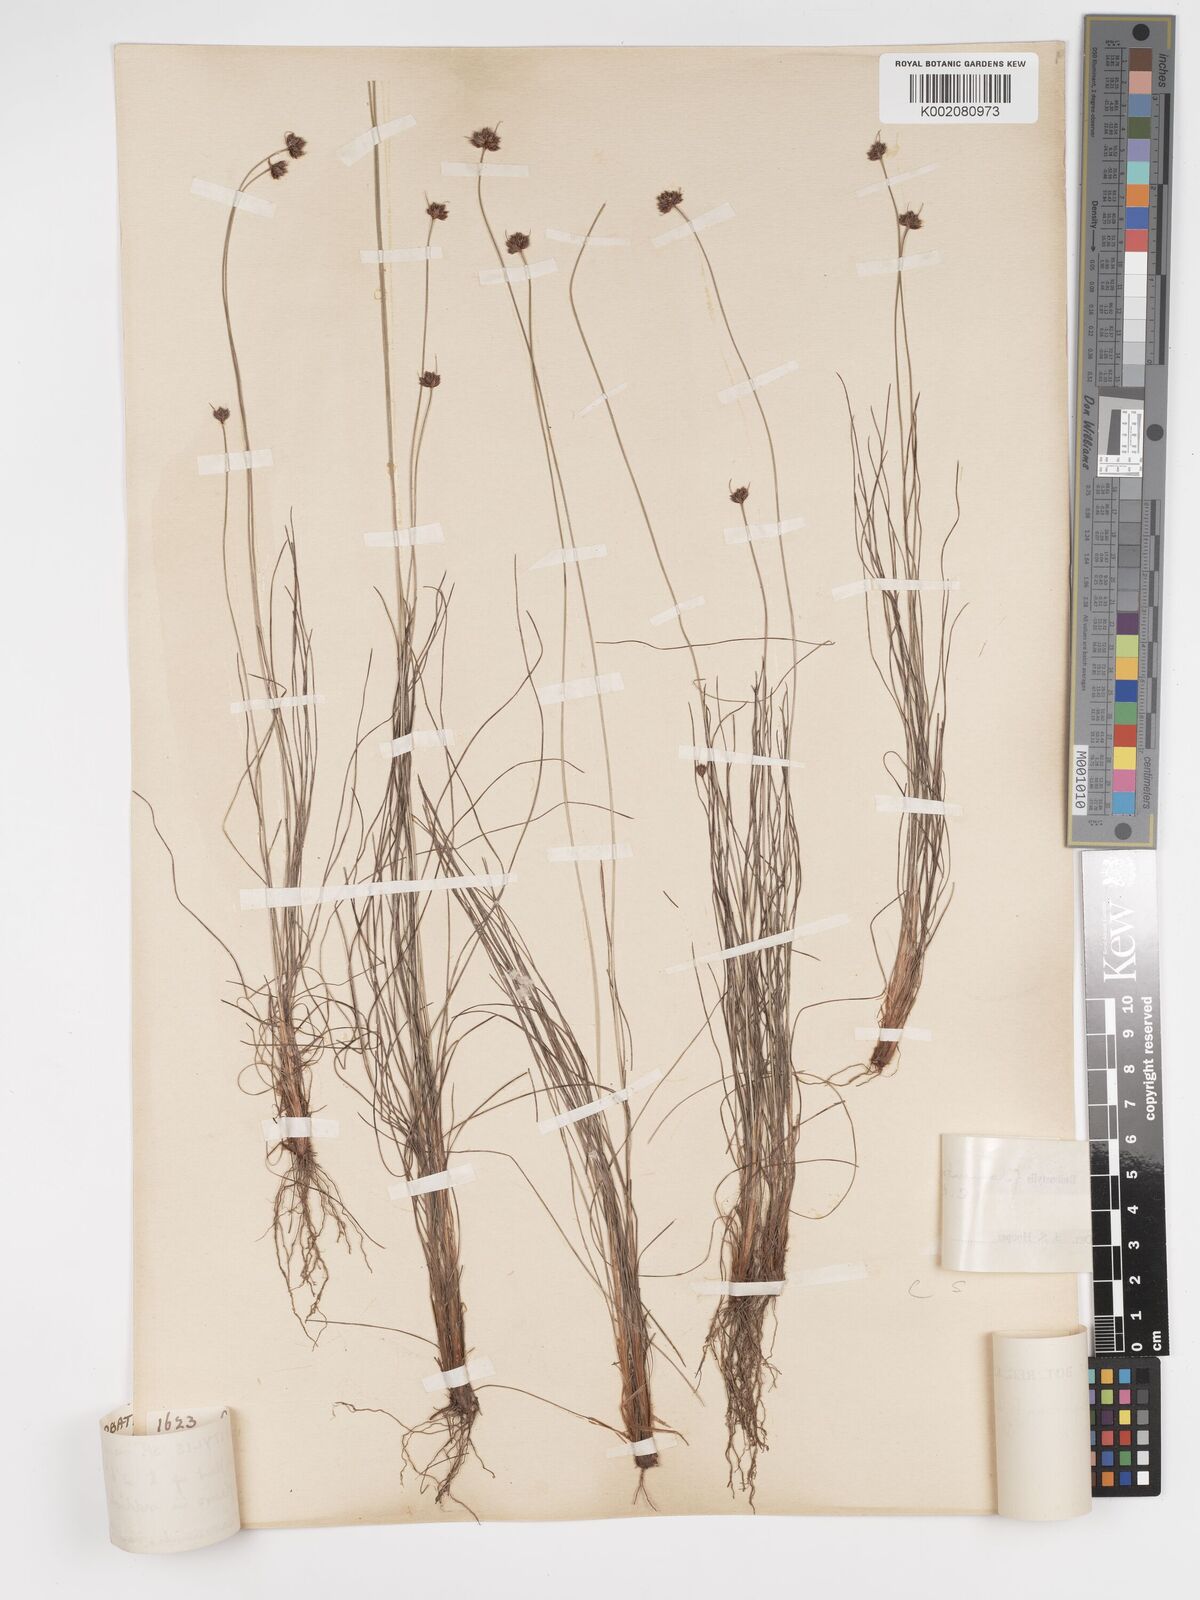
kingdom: Plantae
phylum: Tracheophyta
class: Liliopsida
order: Poales
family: Cyperaceae
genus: Bulbostylis
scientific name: Bulbostylis filamentosa
